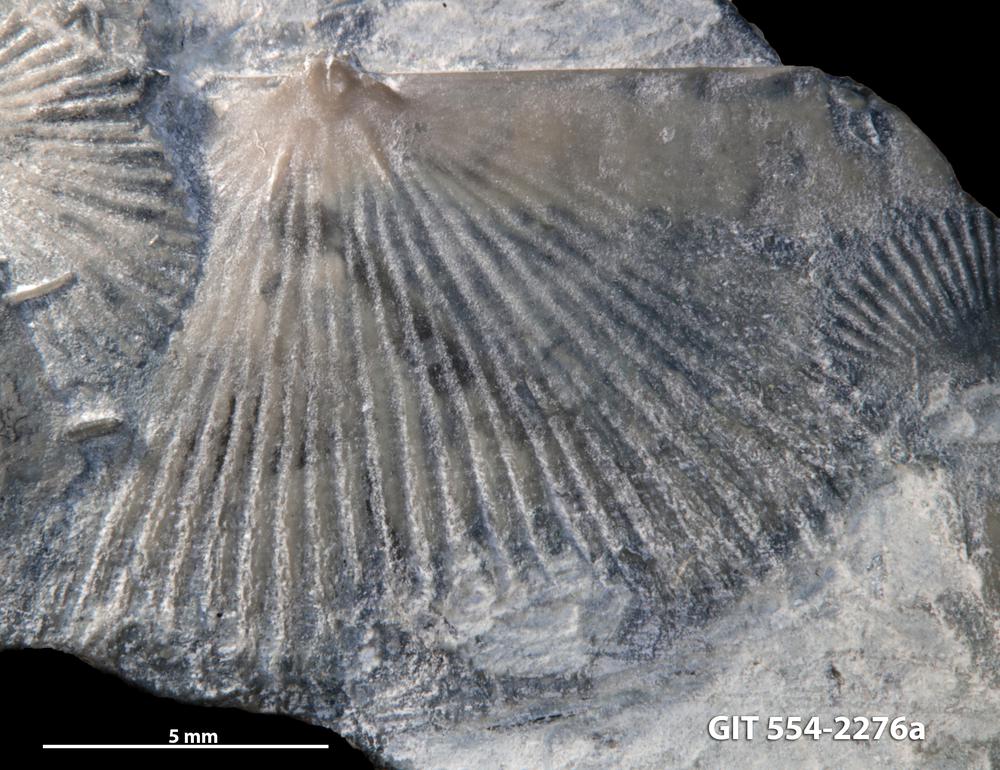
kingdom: Animalia
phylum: Brachiopoda
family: Strophochonetidae
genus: Protochonetes
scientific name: Protochonetes piltenensis
